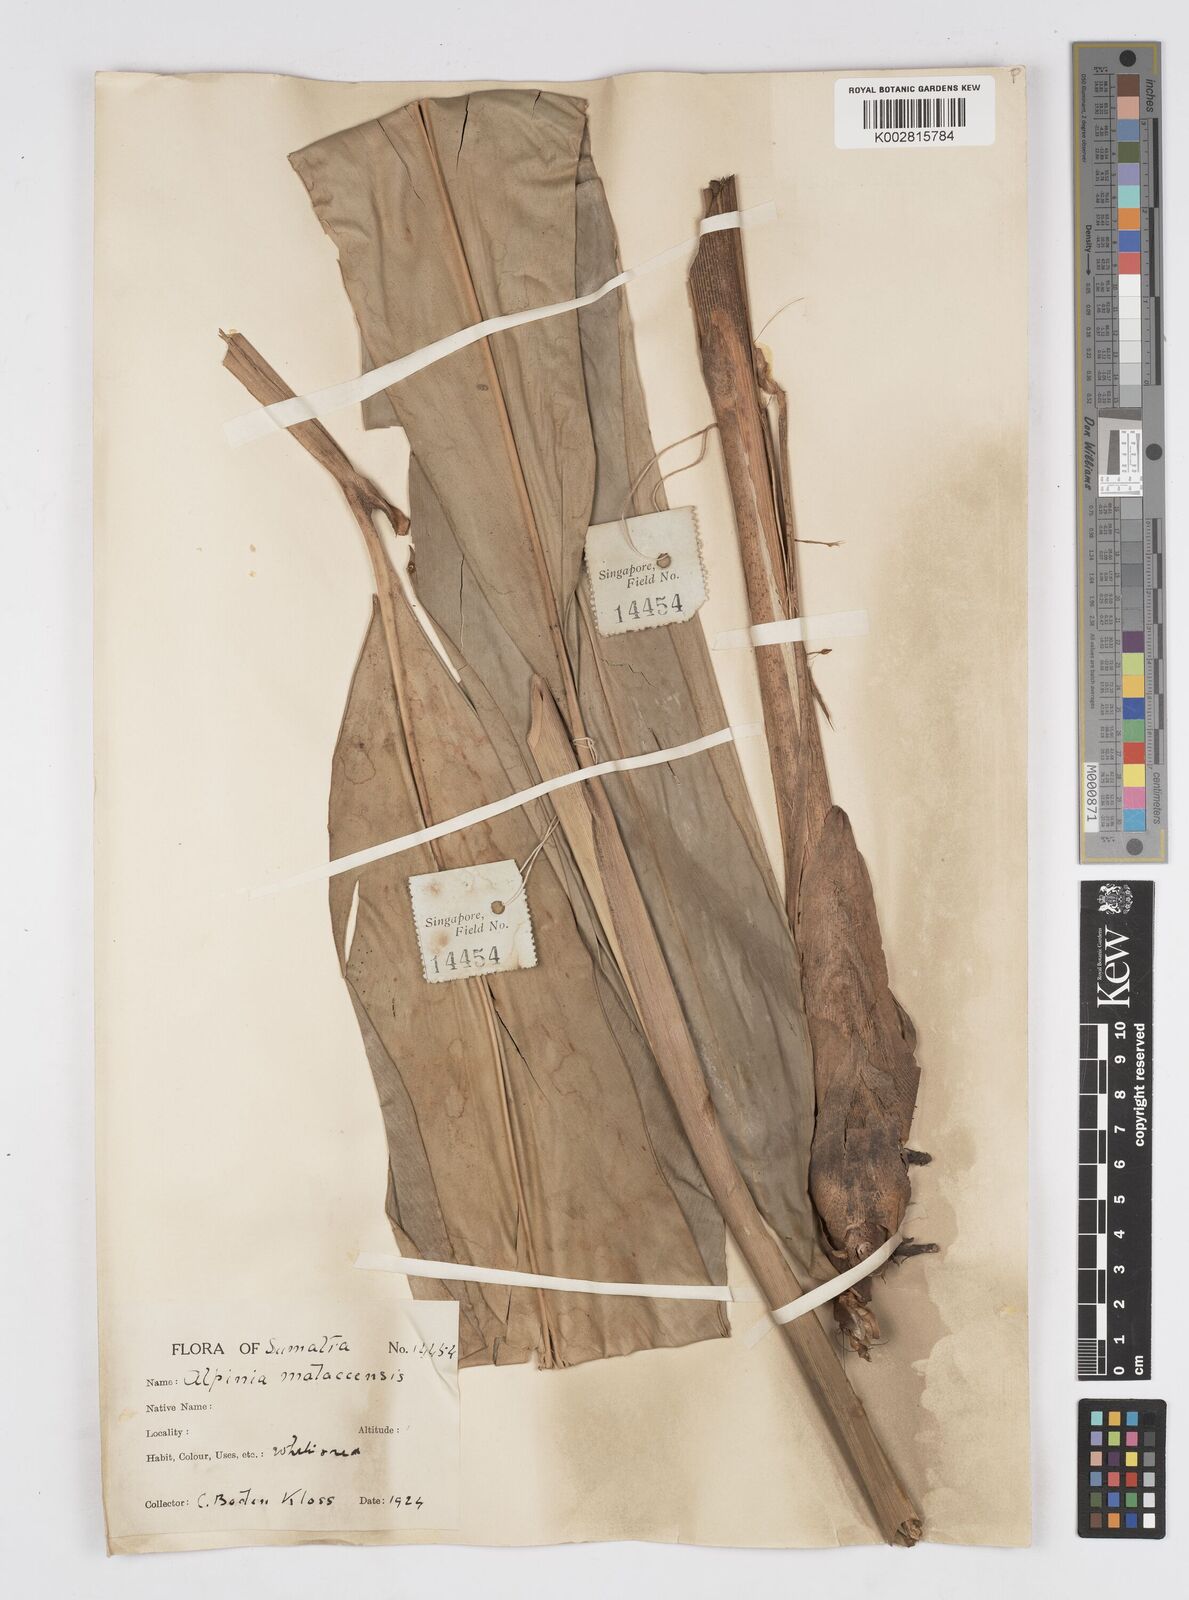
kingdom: Plantae
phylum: Tracheophyta
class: Liliopsida
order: Zingiberales
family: Zingiberaceae
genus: Alpinia
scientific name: Alpinia malaccensis
